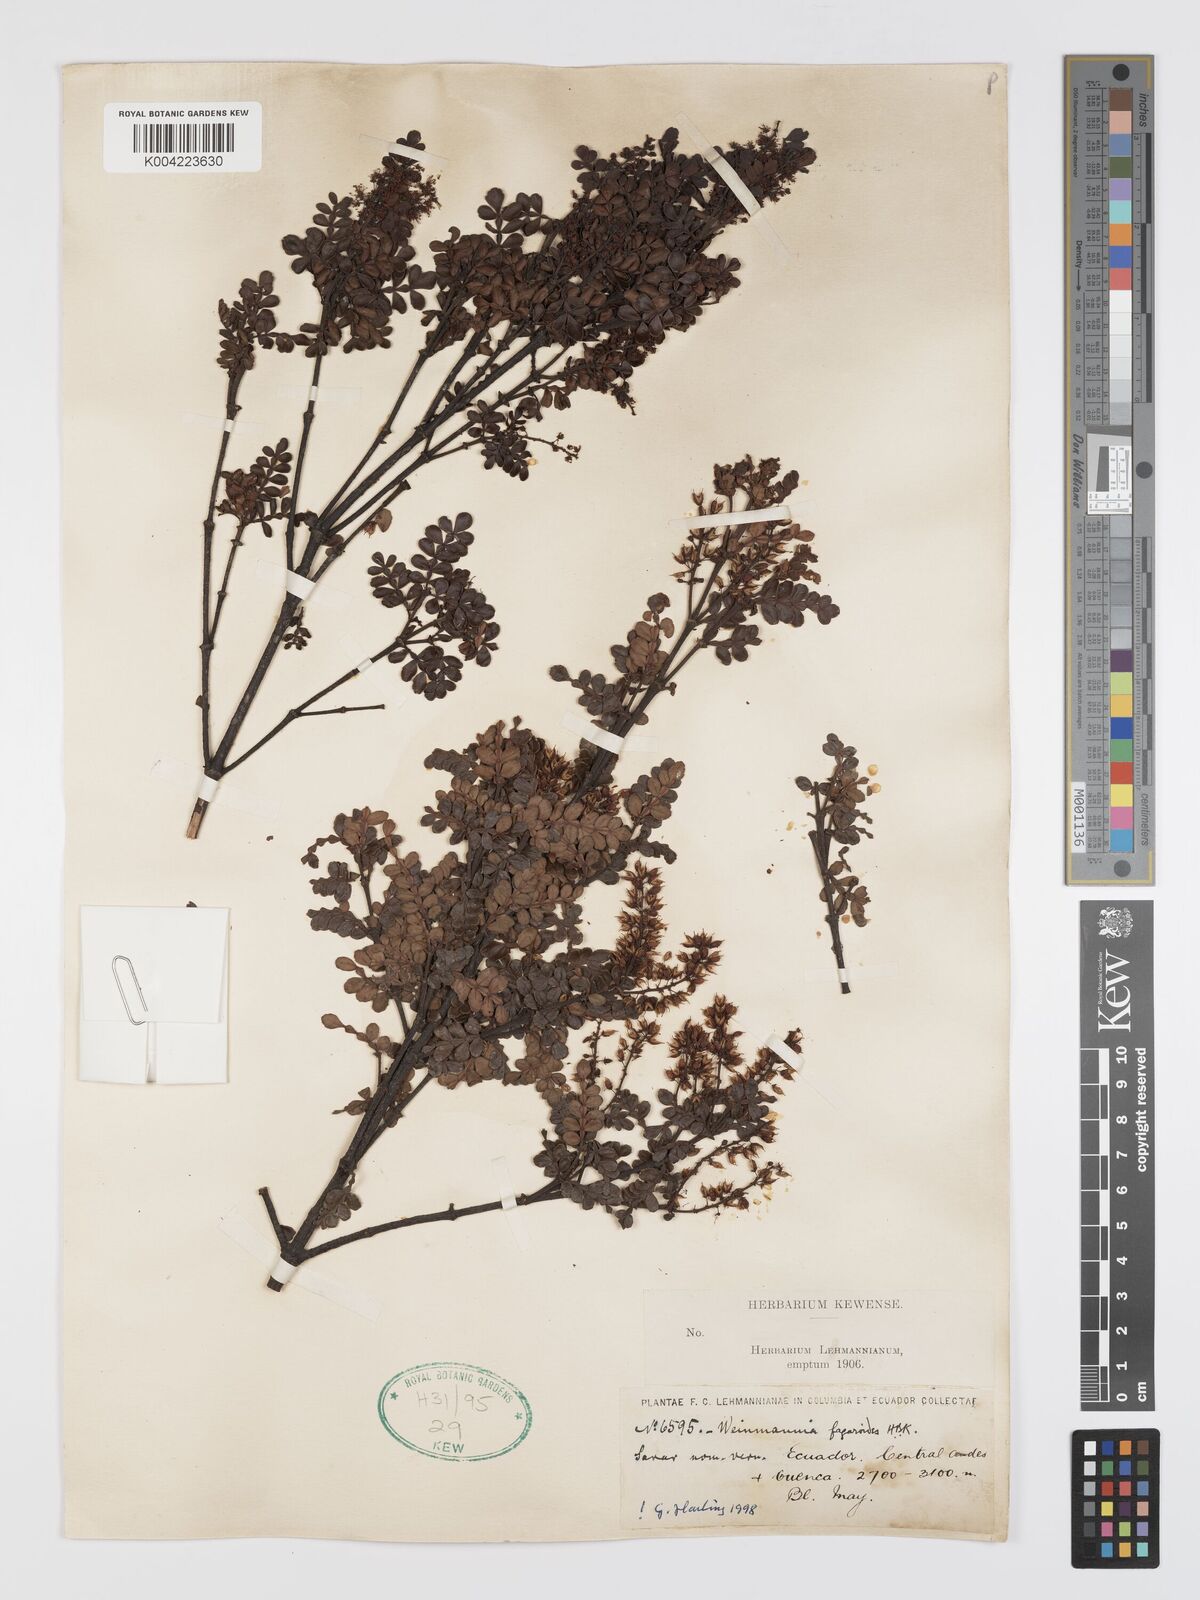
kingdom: Plantae
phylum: Tracheophyta
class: Magnoliopsida
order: Oxalidales
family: Cunoniaceae
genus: Weinmannia
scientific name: Weinmannia fagaroides
